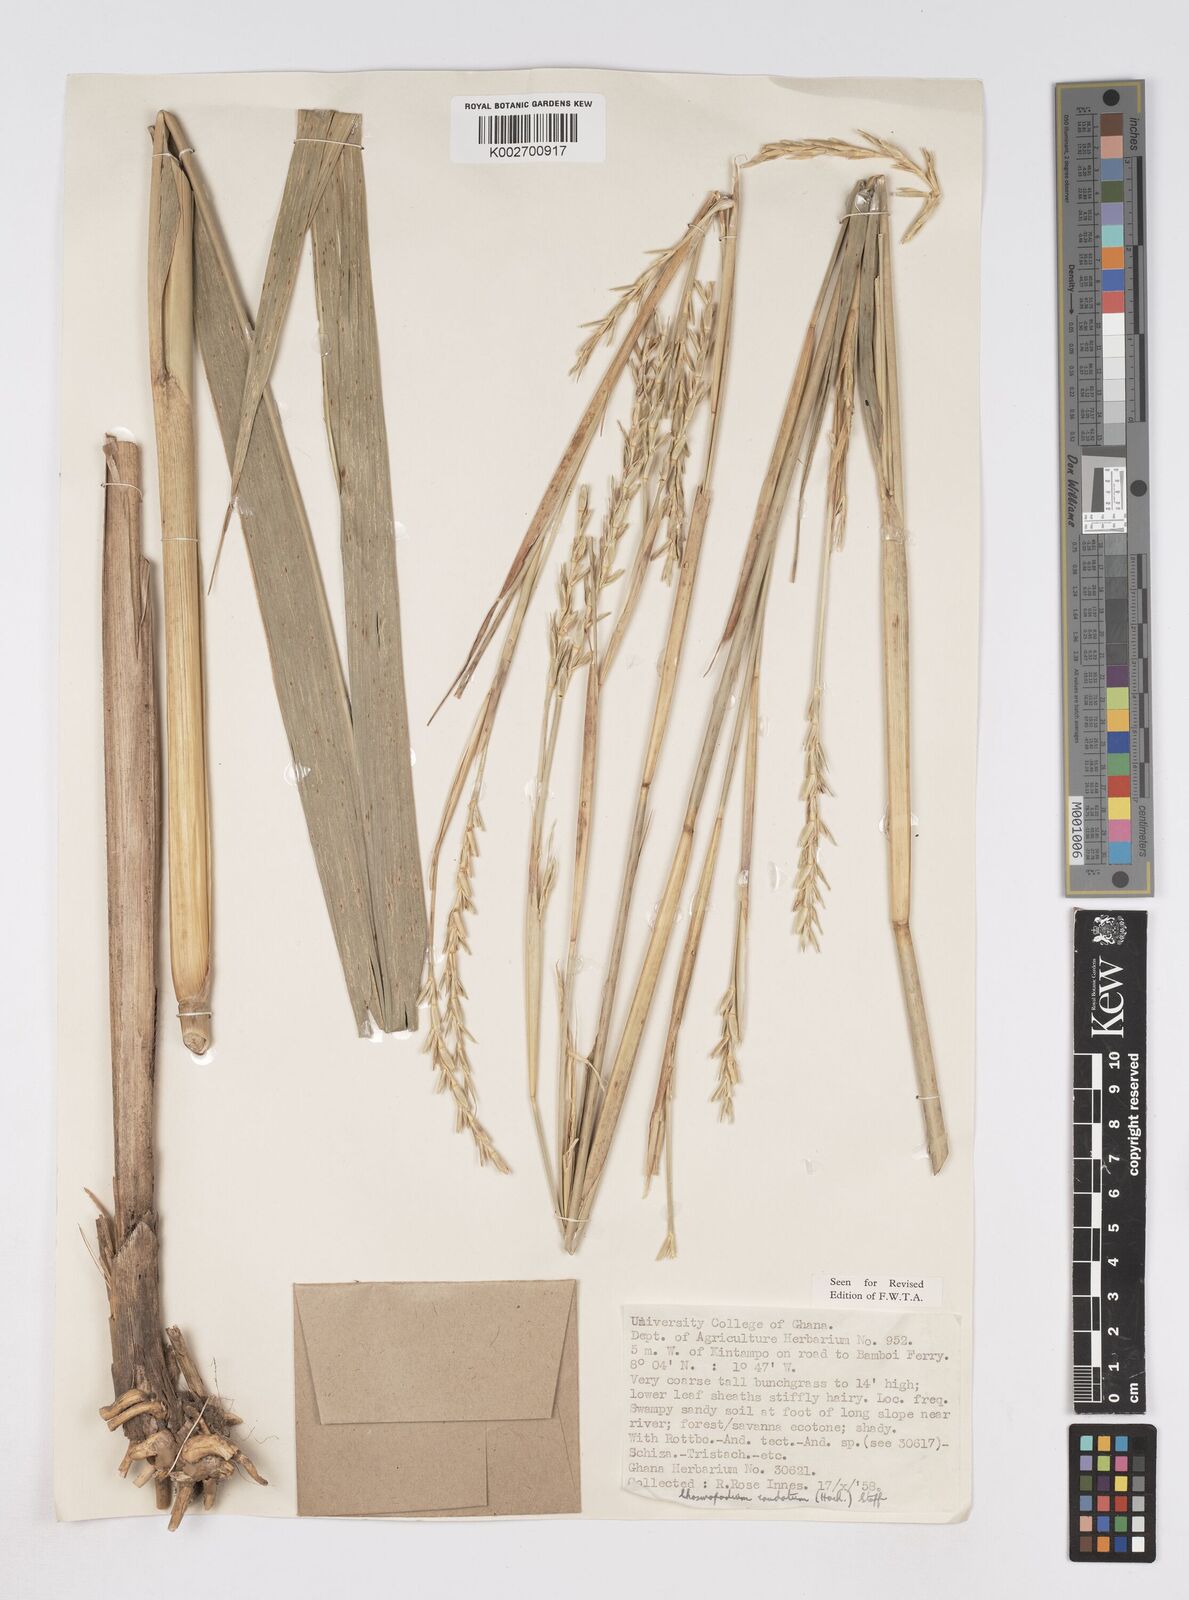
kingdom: Plantae
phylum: Tracheophyta
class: Liliopsida
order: Poales
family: Poaceae
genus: Chasmopodium
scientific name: Chasmopodium caudatum
